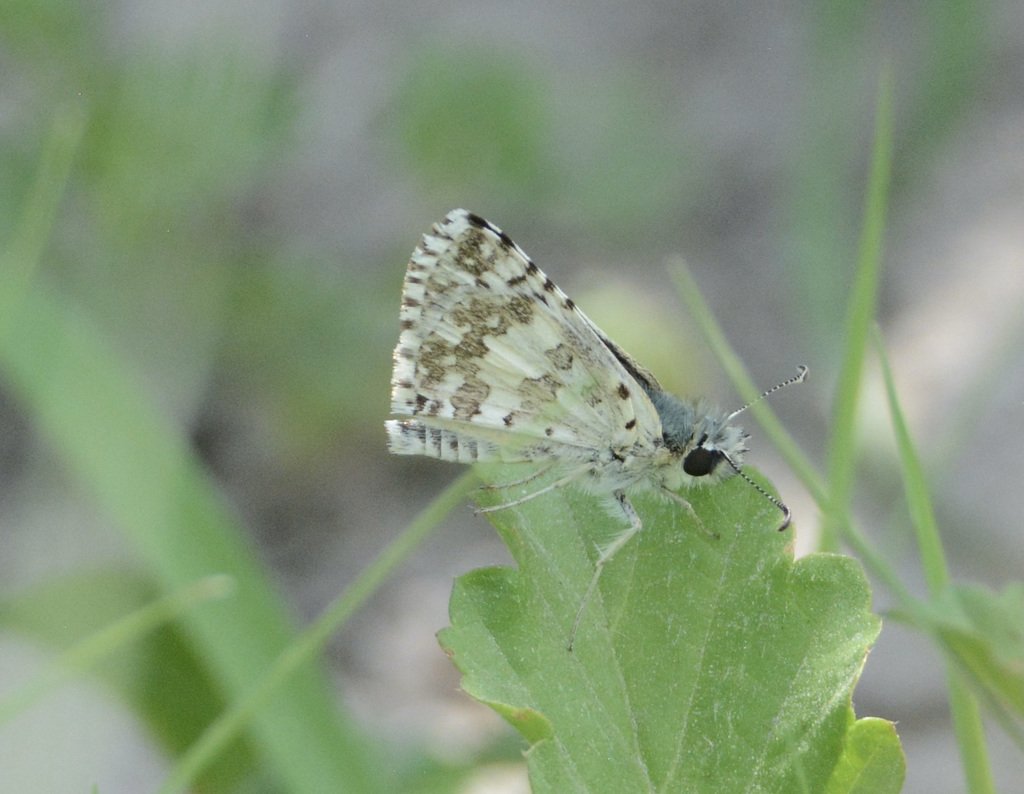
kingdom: Animalia
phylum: Arthropoda
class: Insecta
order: Lepidoptera
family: Hesperiidae
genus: Pyrgus
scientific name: Pyrgus oileus
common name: Tropical Checkered-Skipper
